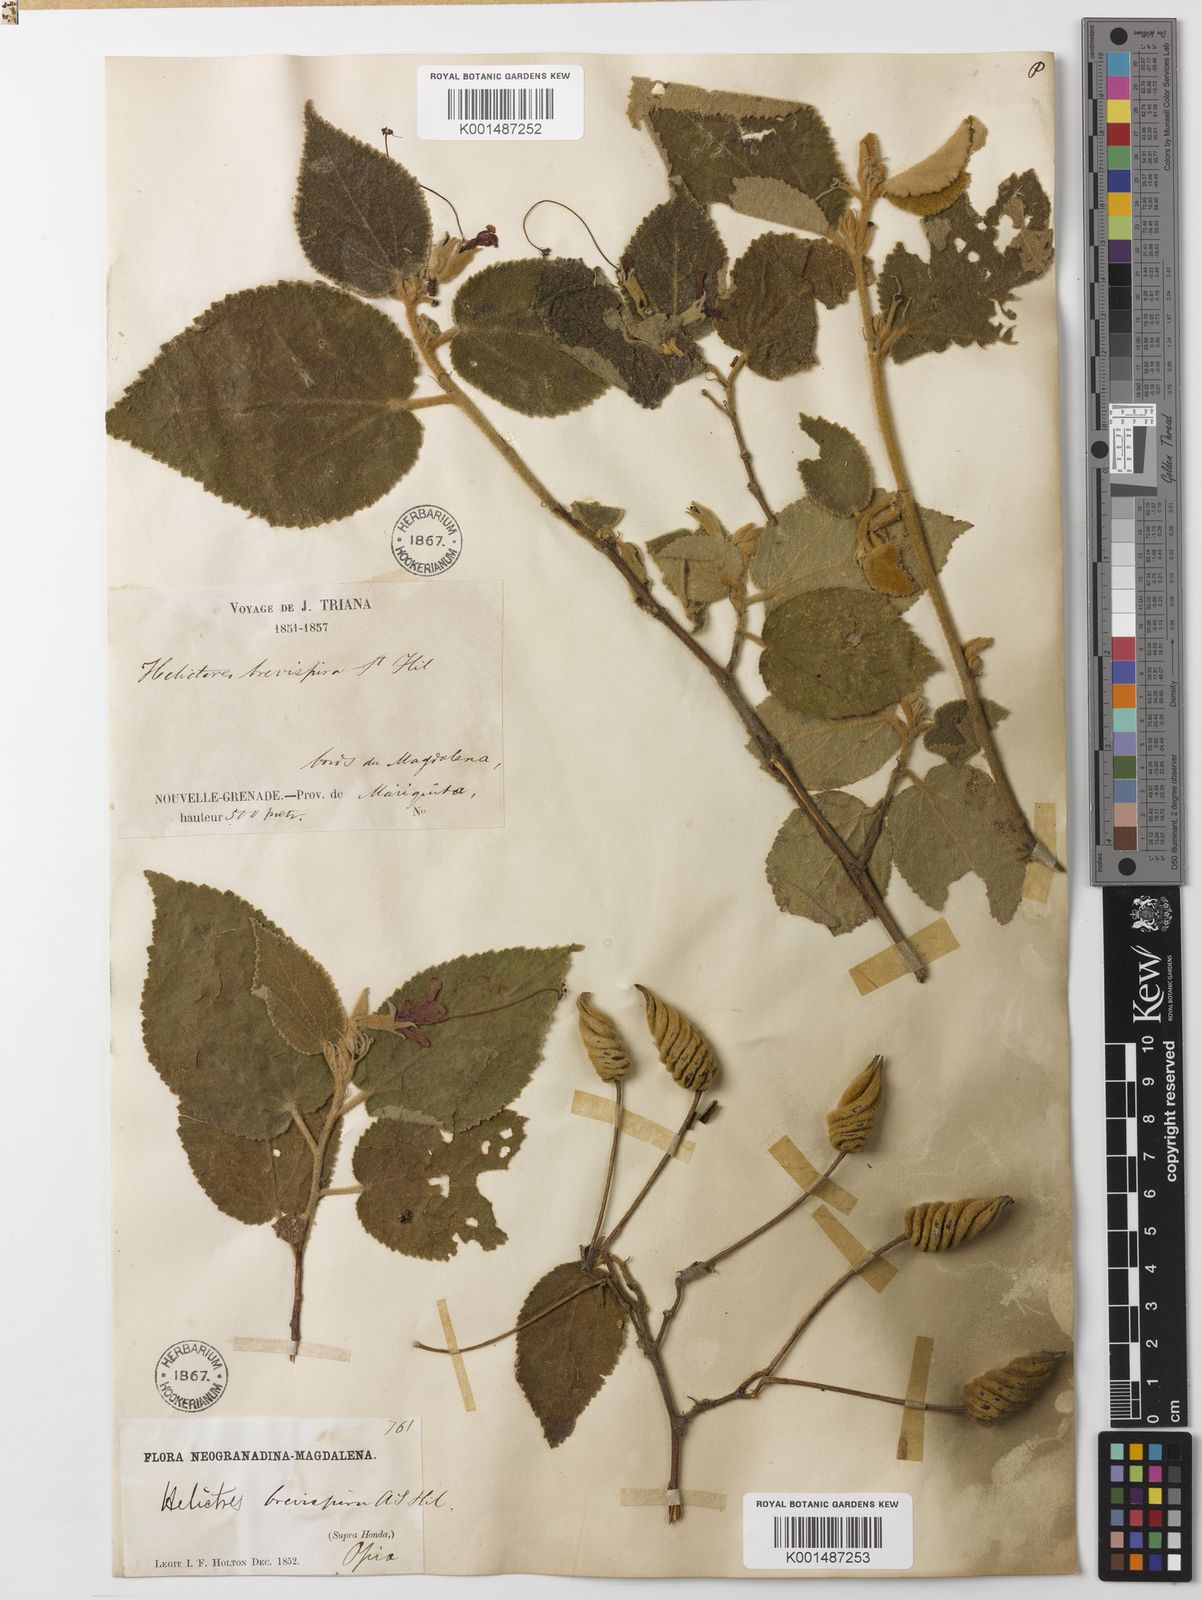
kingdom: Plantae
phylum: Tracheophyta
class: Magnoliopsida
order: Malvales
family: Malvaceae
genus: Helicteres
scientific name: Helicteres brevispira
